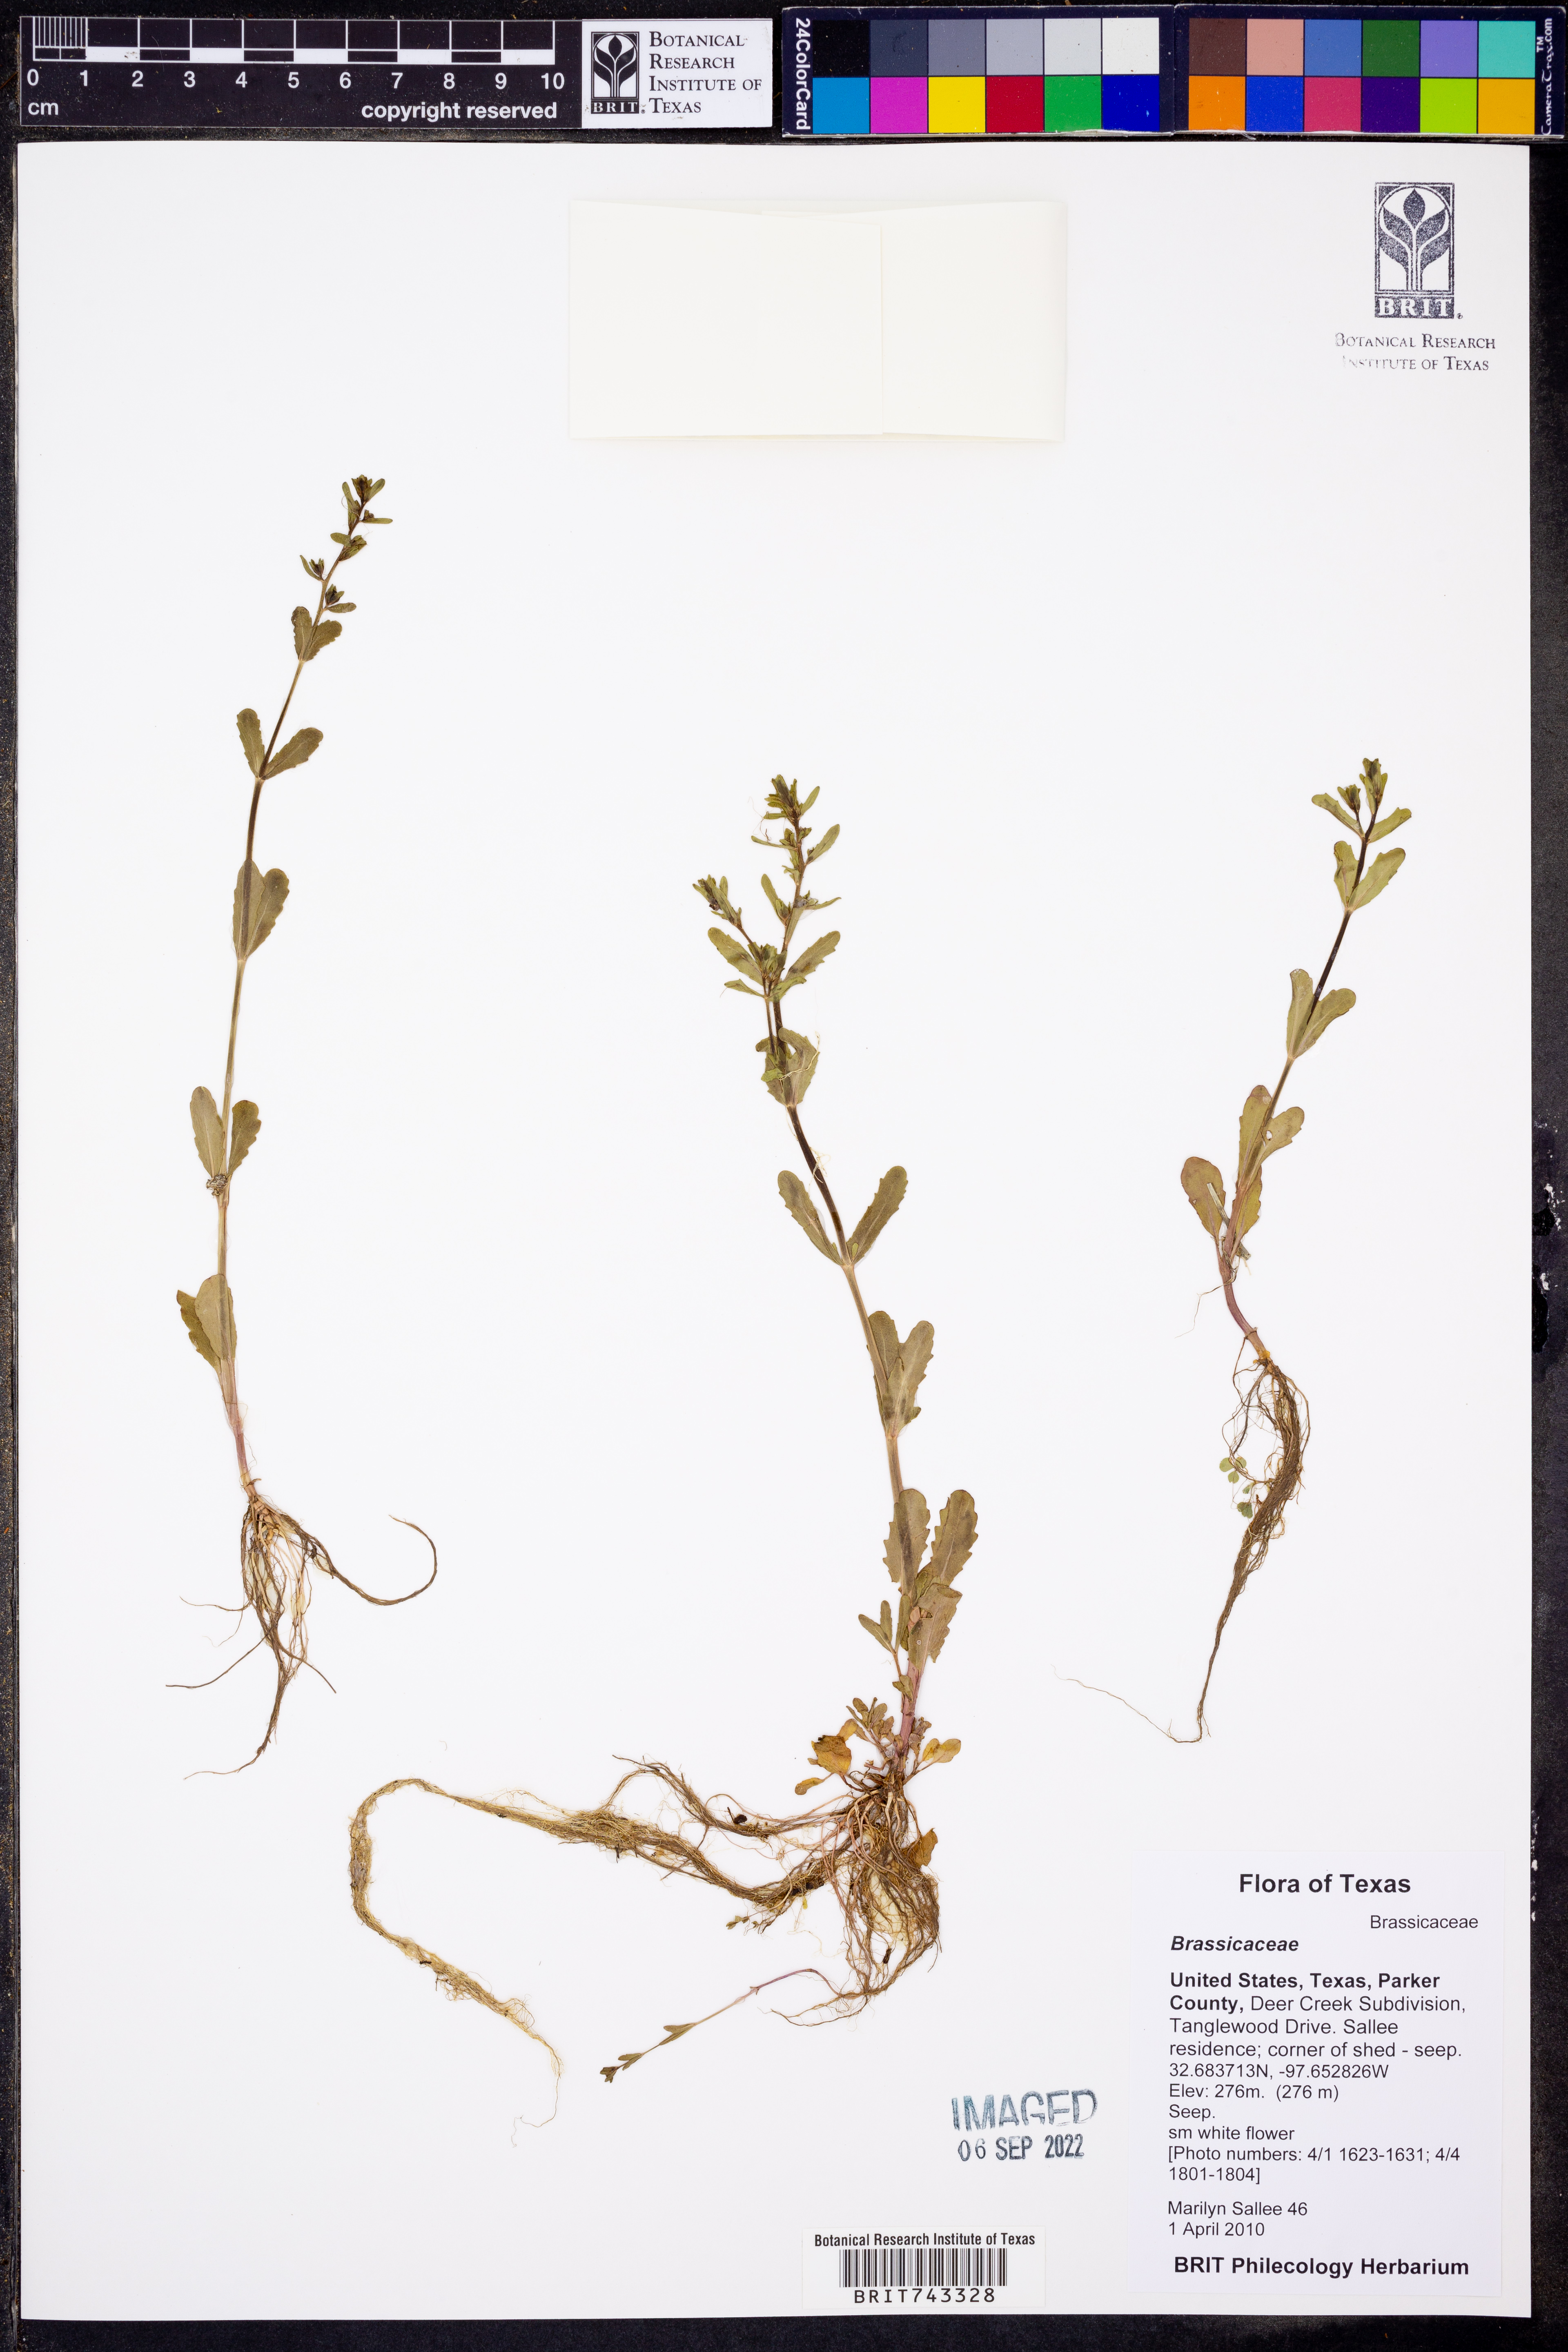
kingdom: Plantae
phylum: Tracheophyta
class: Magnoliopsida
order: Brassicales
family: Brassicaceae
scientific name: Brassicaceae
